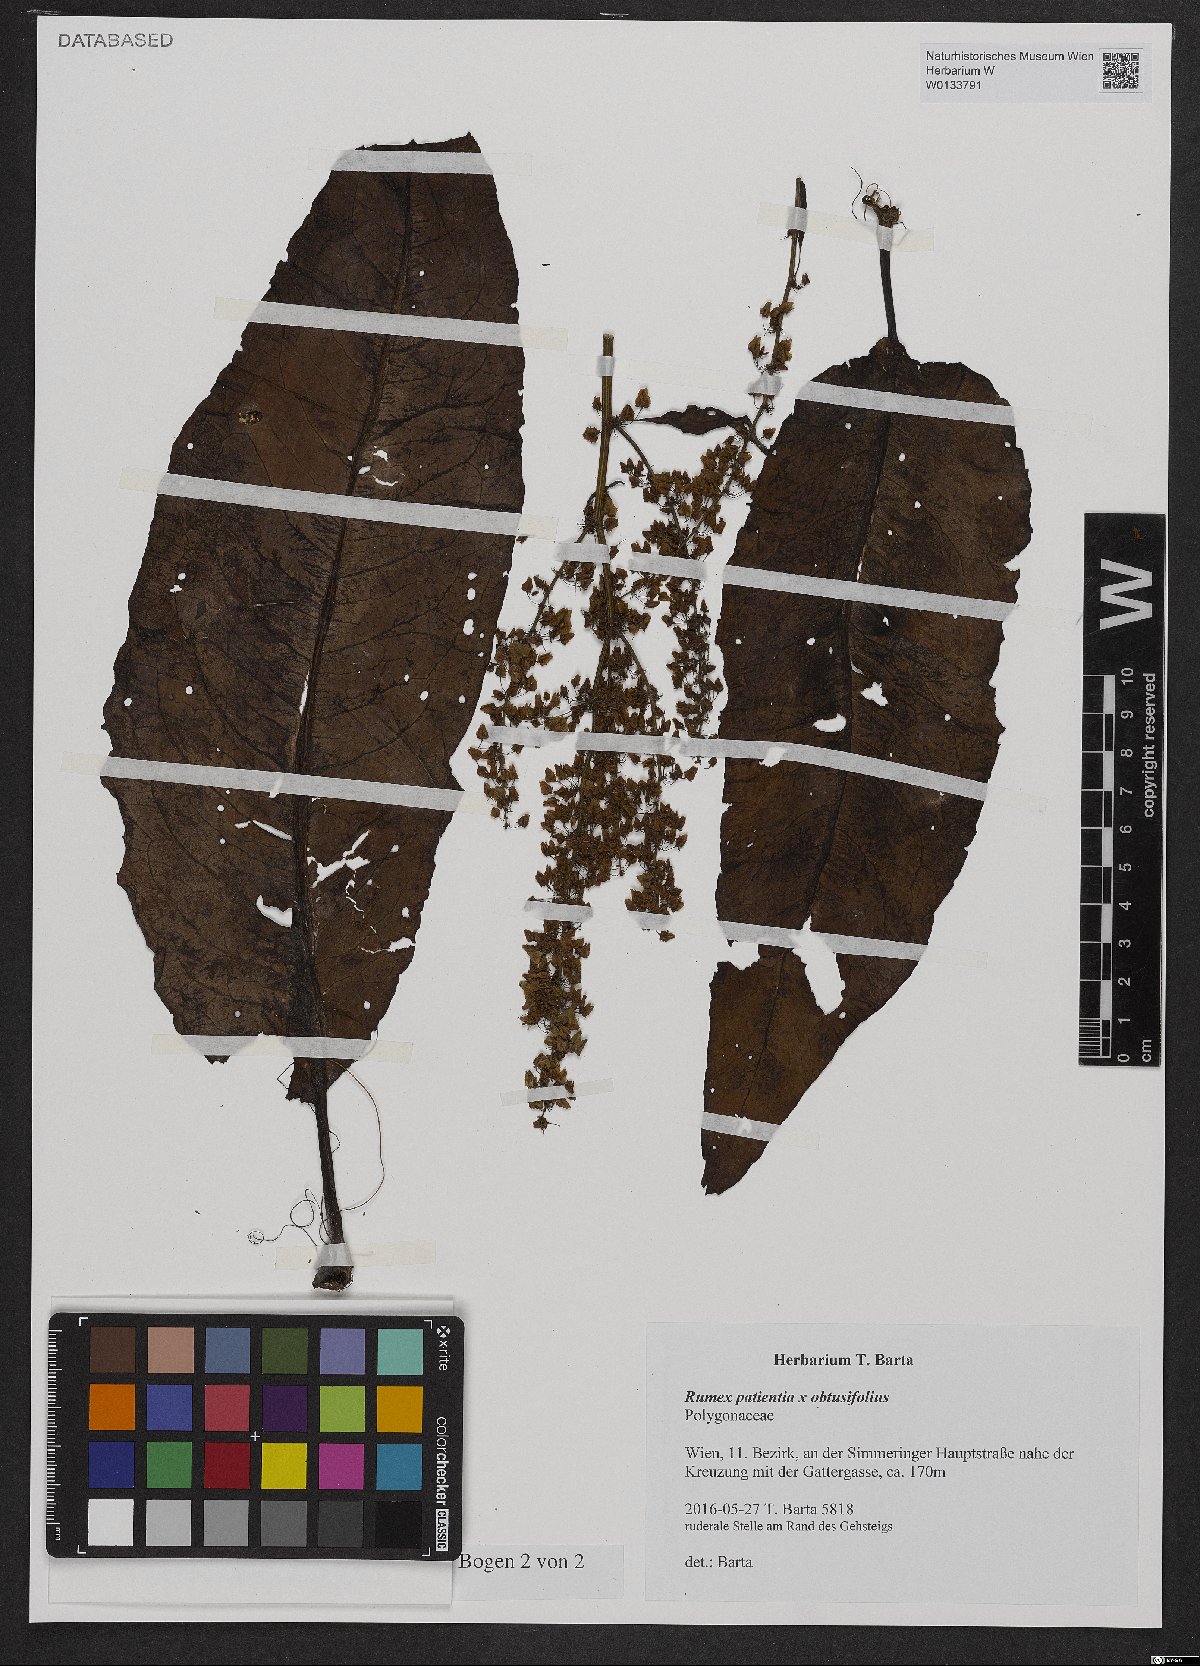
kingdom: Plantae
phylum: Tracheophyta
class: Magnoliopsida
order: Caryophyllales
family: Polygonaceae
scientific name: Polygonaceae
